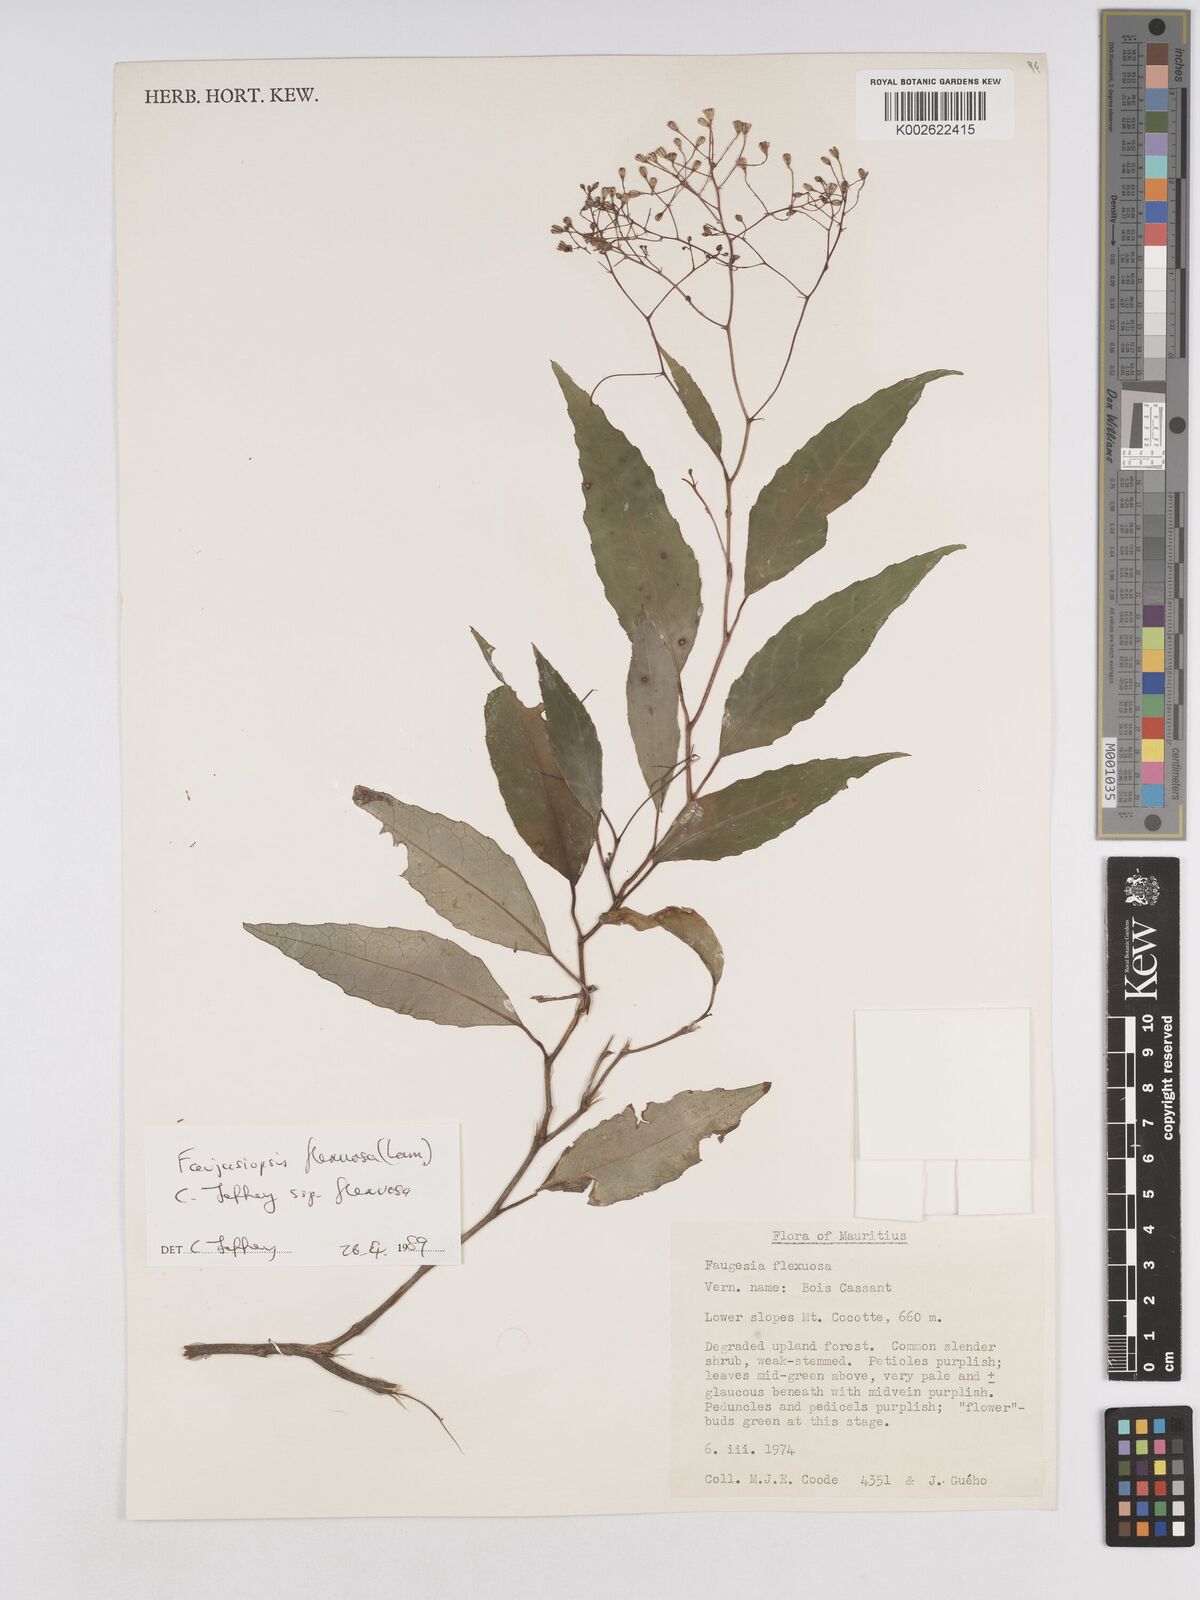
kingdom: Plantae
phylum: Tracheophyta
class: Magnoliopsida
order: Asterales
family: Asteraceae
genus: Faujasiopsis
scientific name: Faujasiopsis flexuosa
